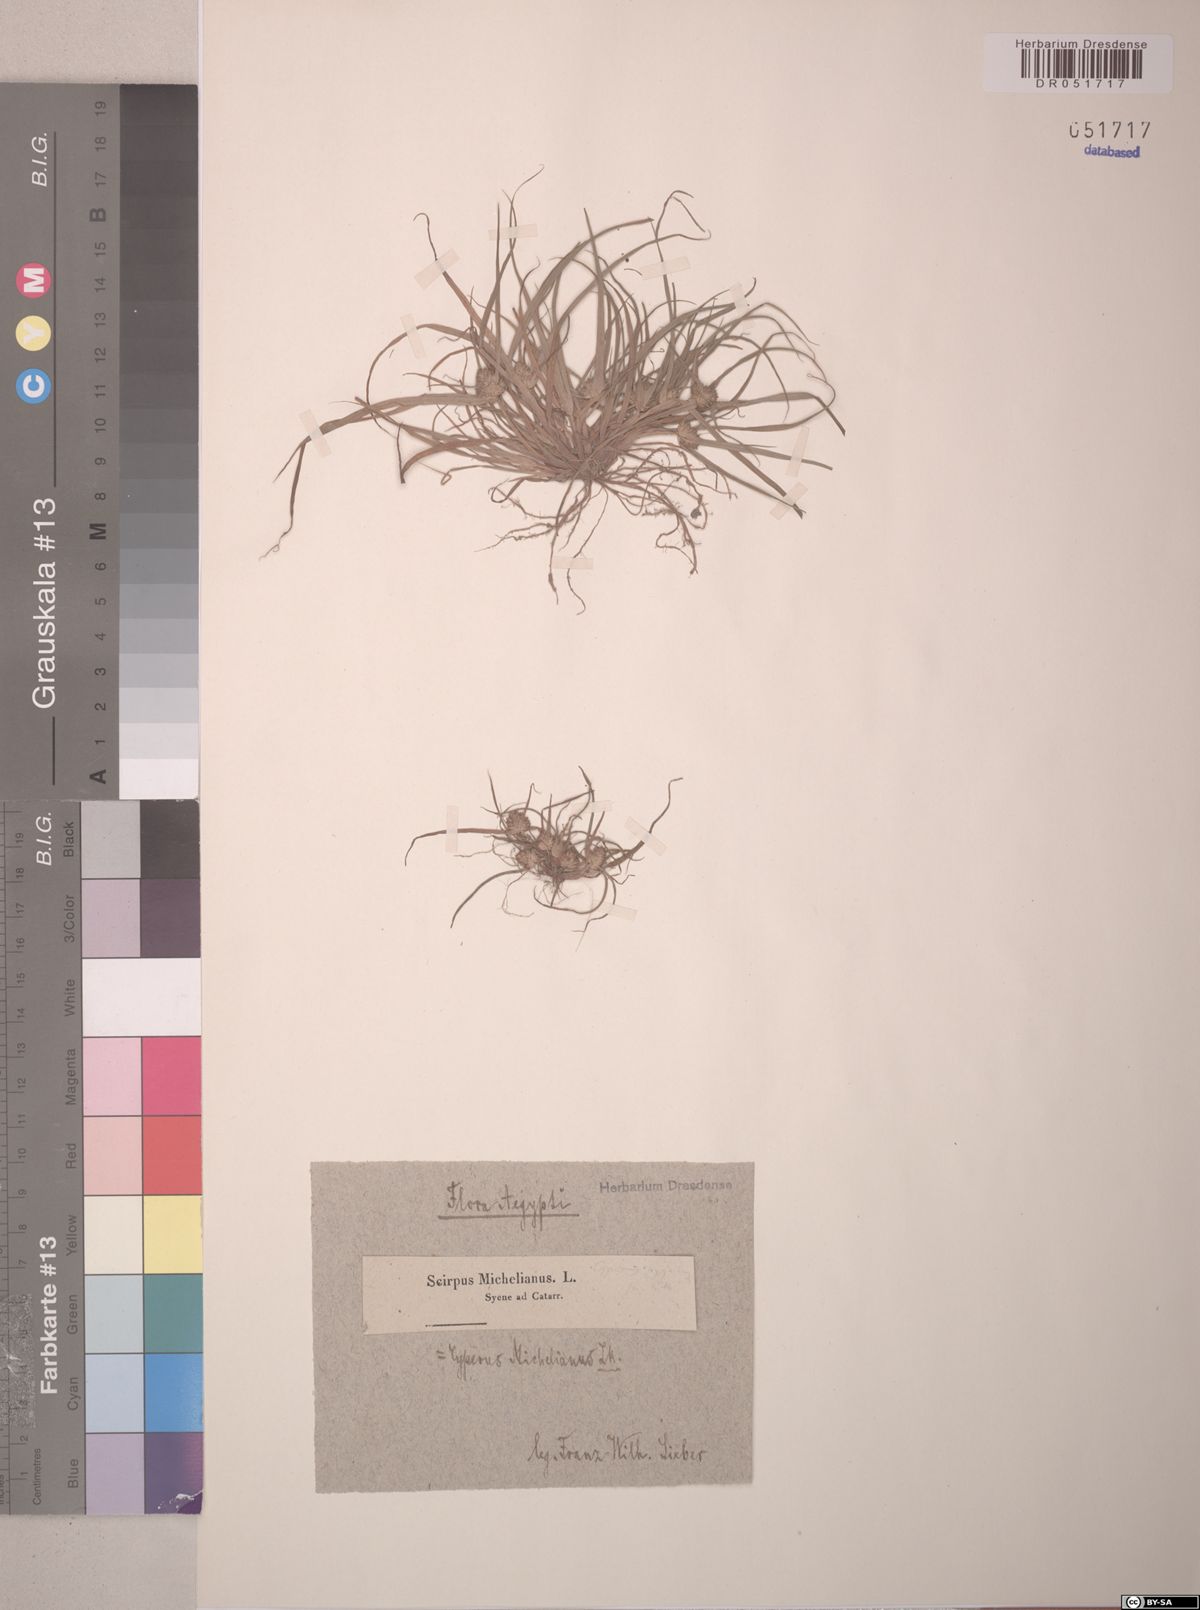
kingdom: Plantae
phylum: Tracheophyta
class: Liliopsida
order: Poales
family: Cyperaceae
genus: Cyperus
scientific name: Cyperus michelianus
